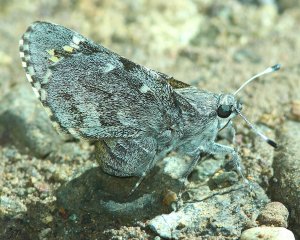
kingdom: Animalia
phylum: Arthropoda
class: Insecta
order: Lepidoptera
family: Hesperiidae
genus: Agathymus
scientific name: Agathymus aryxna
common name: Arizona Giant-Skipper
